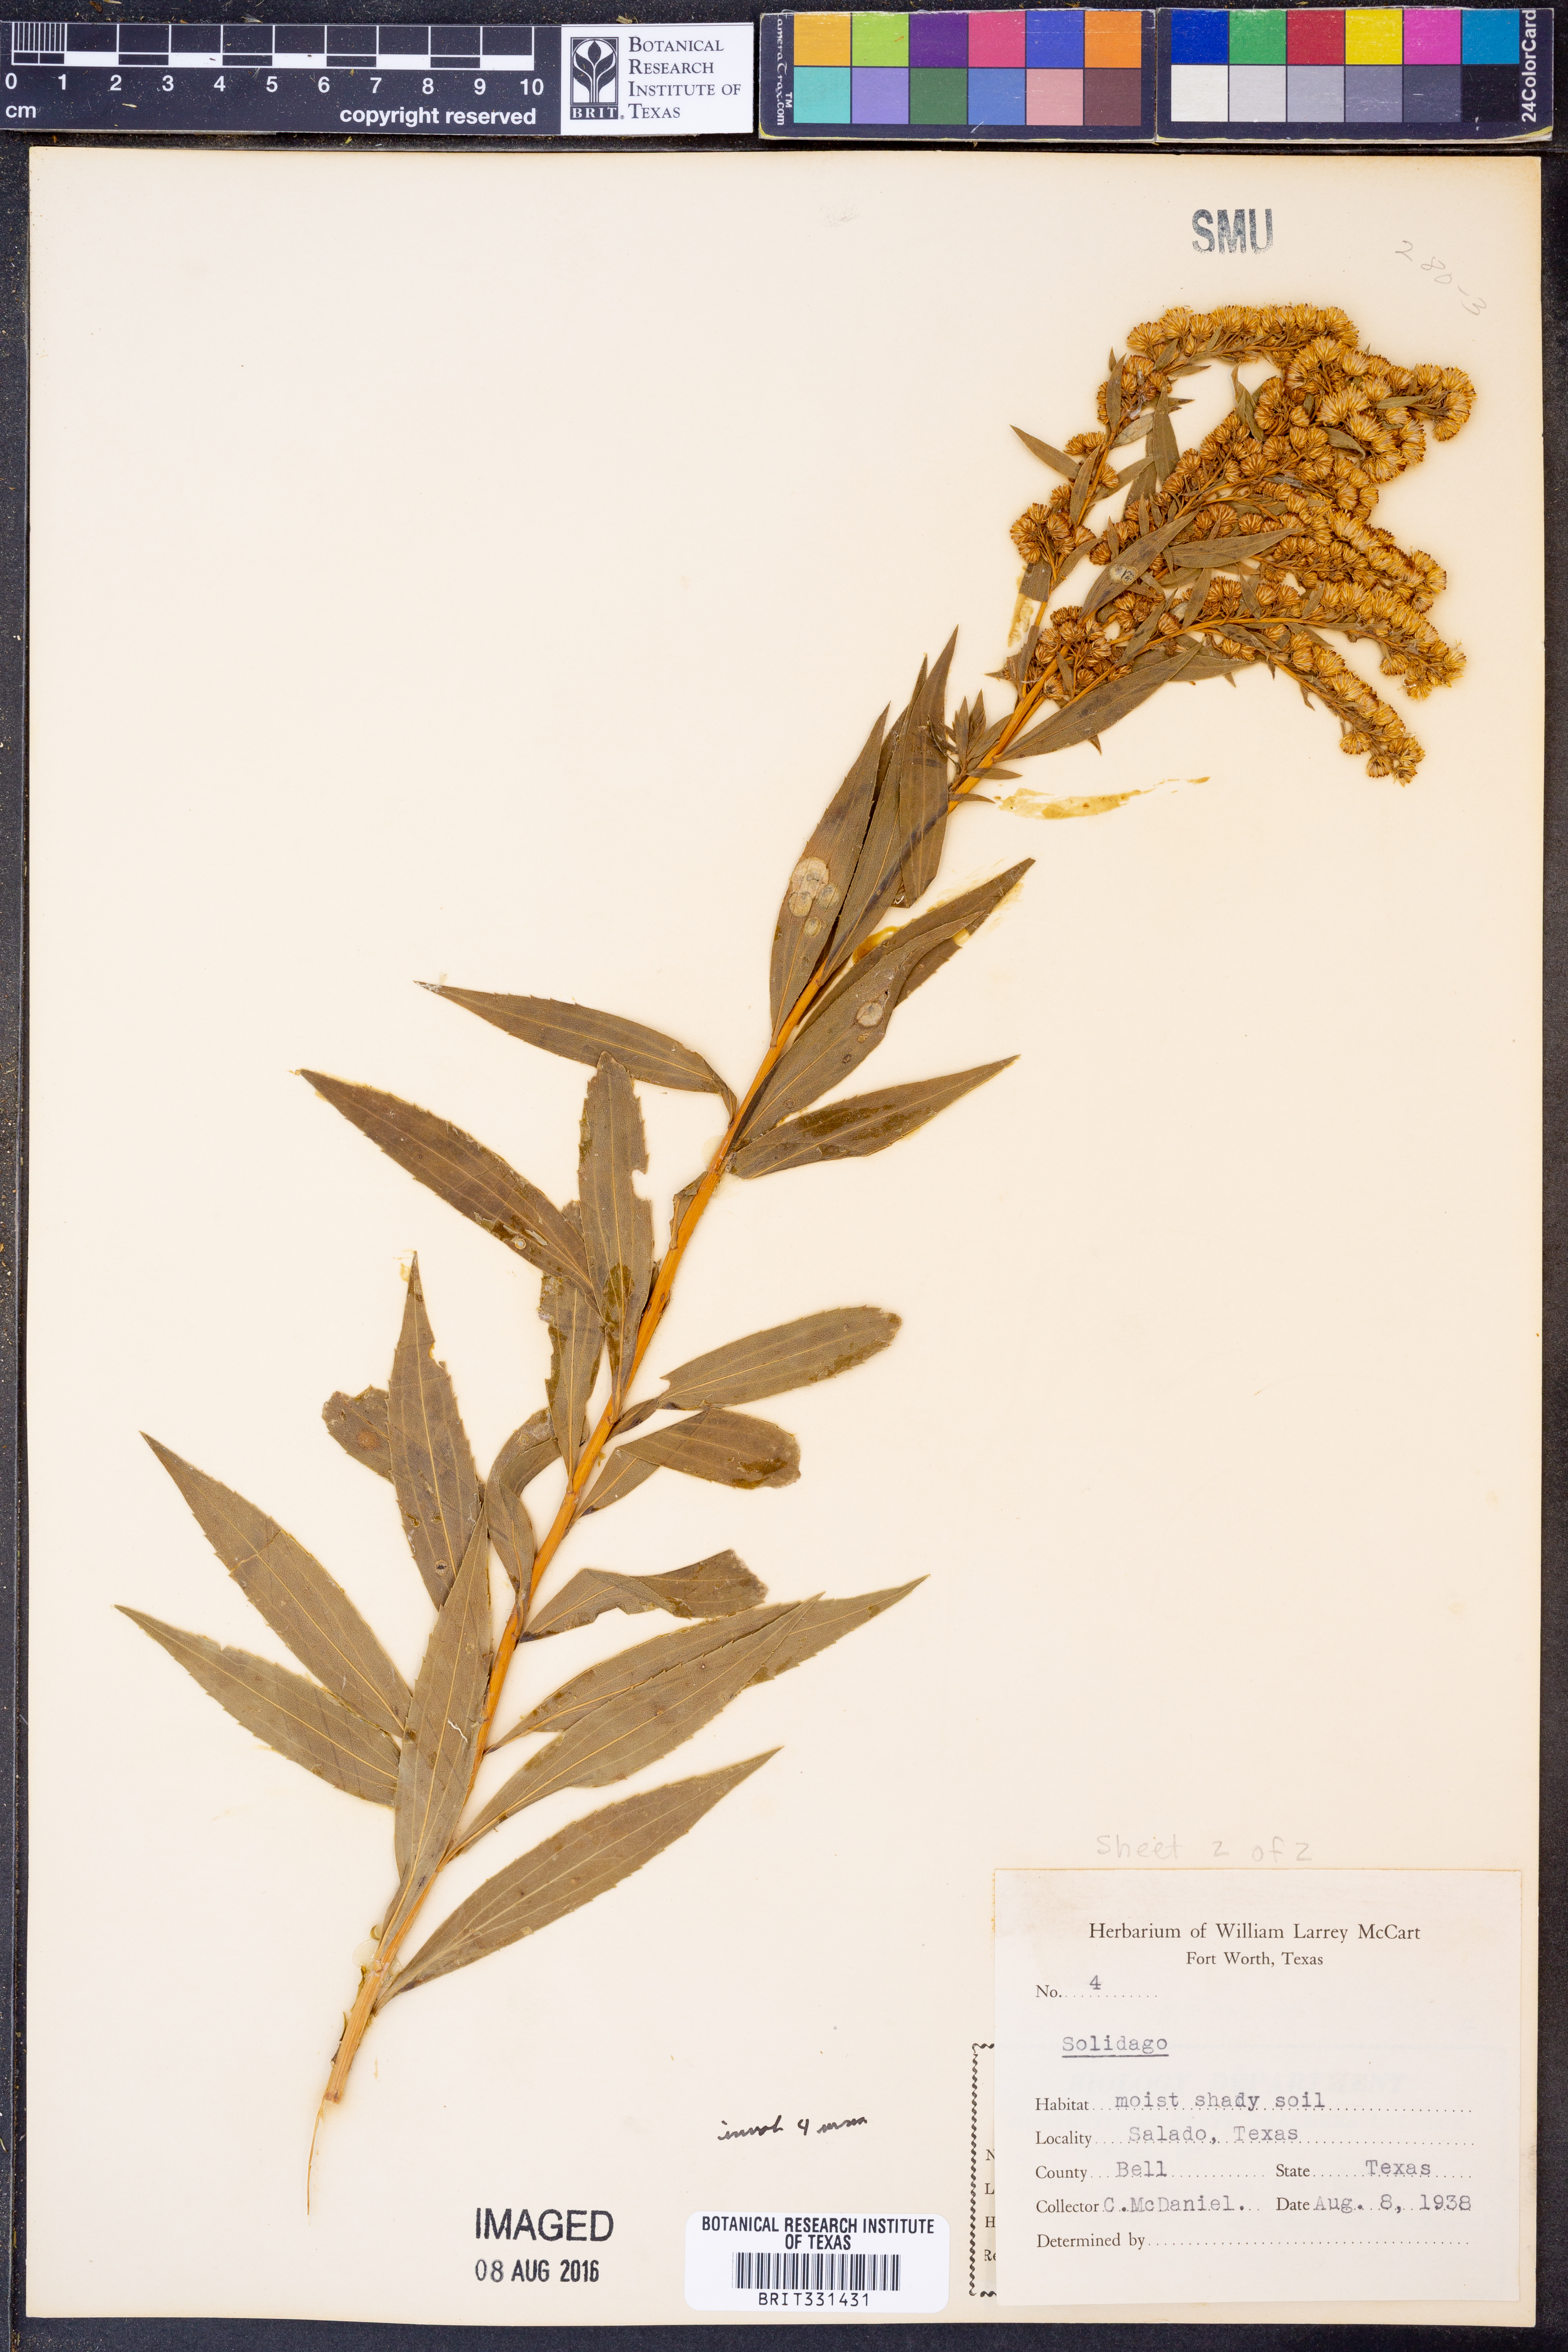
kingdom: Plantae
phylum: Tracheophyta
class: Magnoliopsida
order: Asterales
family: Asteraceae
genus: Solidago
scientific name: Solidago
